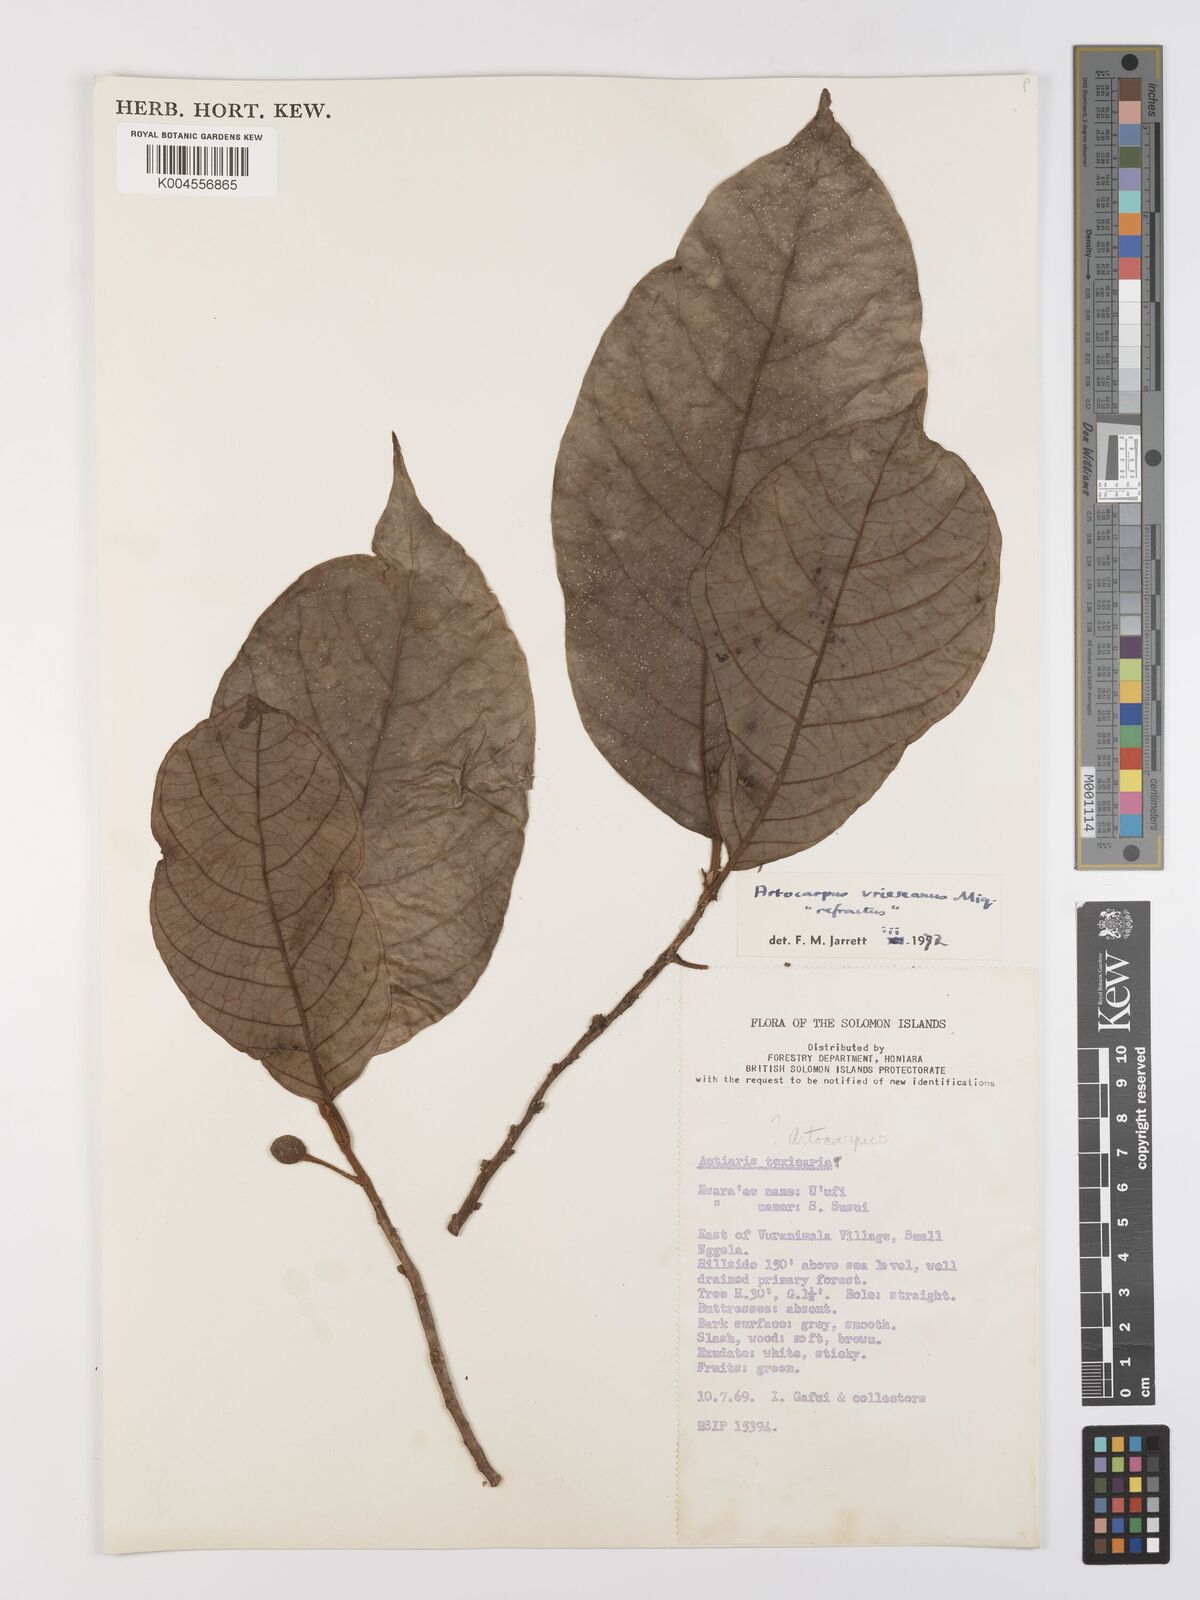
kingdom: Plantae
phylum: Tracheophyta
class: Magnoliopsida
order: Rosales
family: Moraceae
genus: Artocarpus
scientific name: Artocarpus vrieseanus
